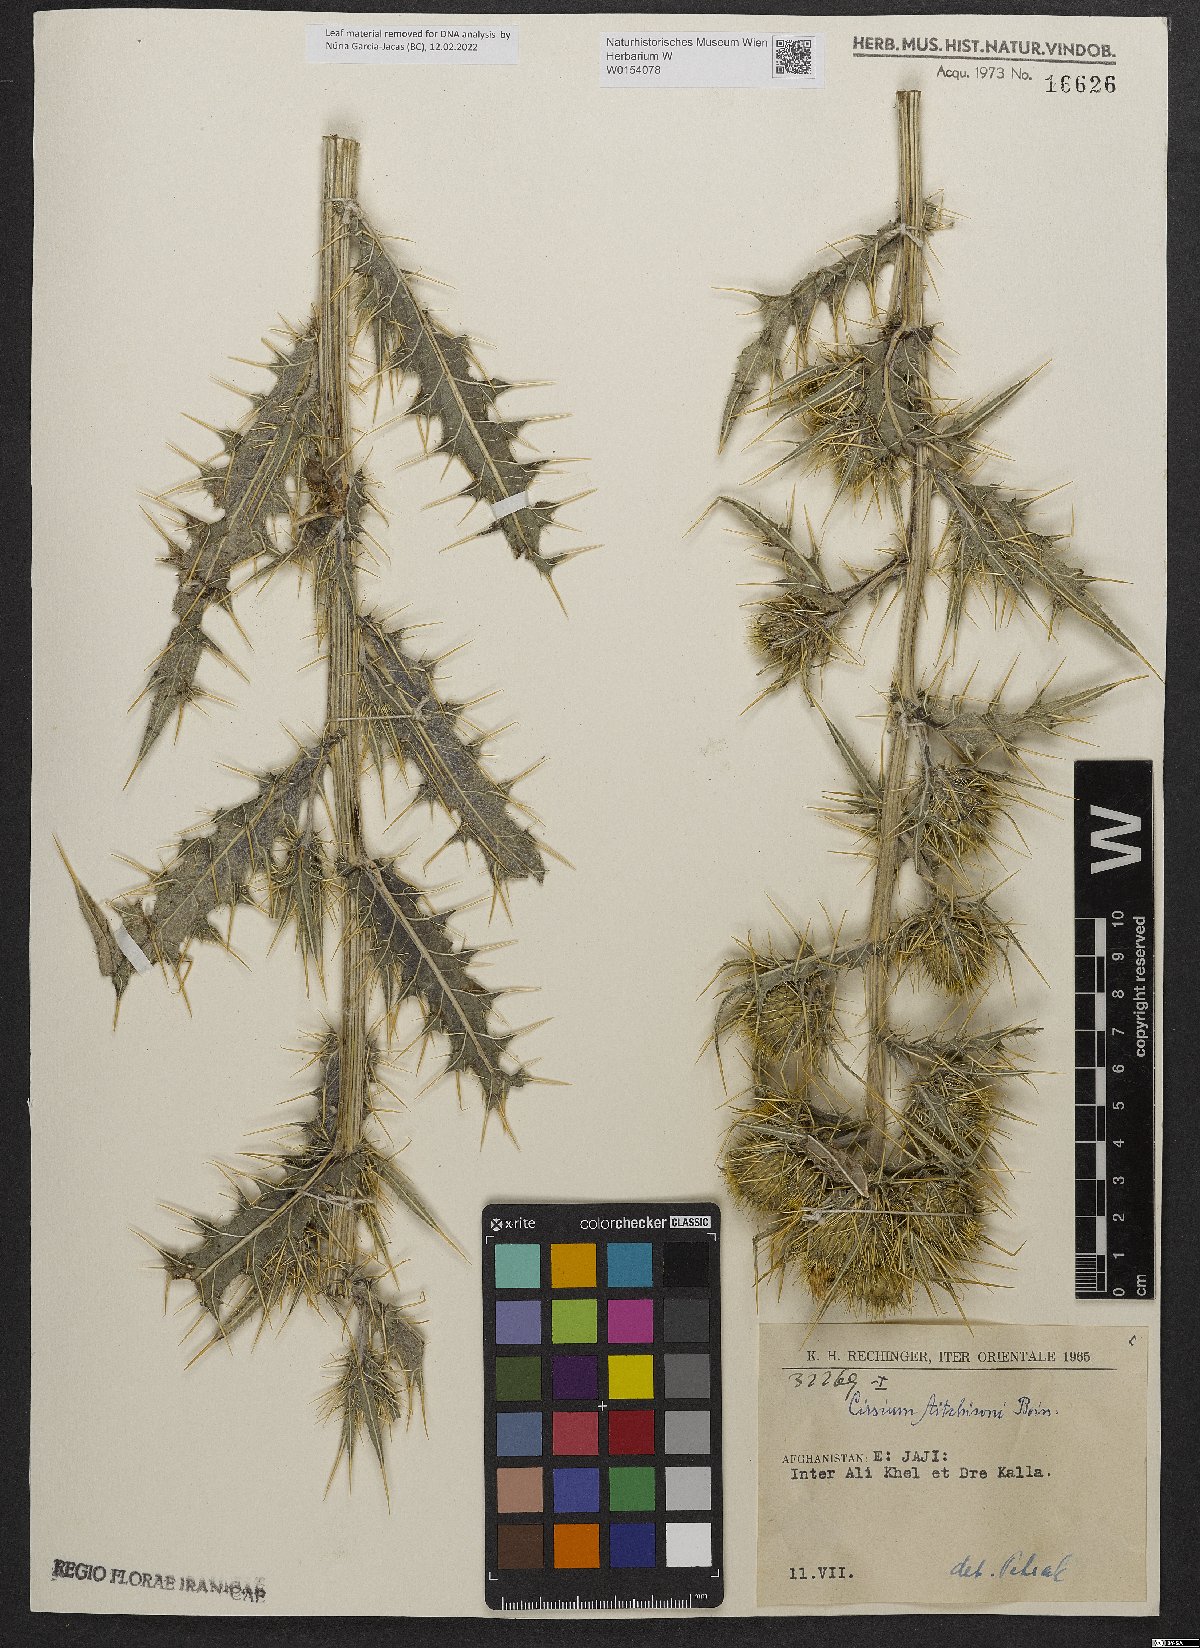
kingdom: Plantae
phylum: Tracheophyta
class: Magnoliopsida
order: Asterales
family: Asteraceae
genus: Lophiolepis
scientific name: Lophiolepis aitchisonii
